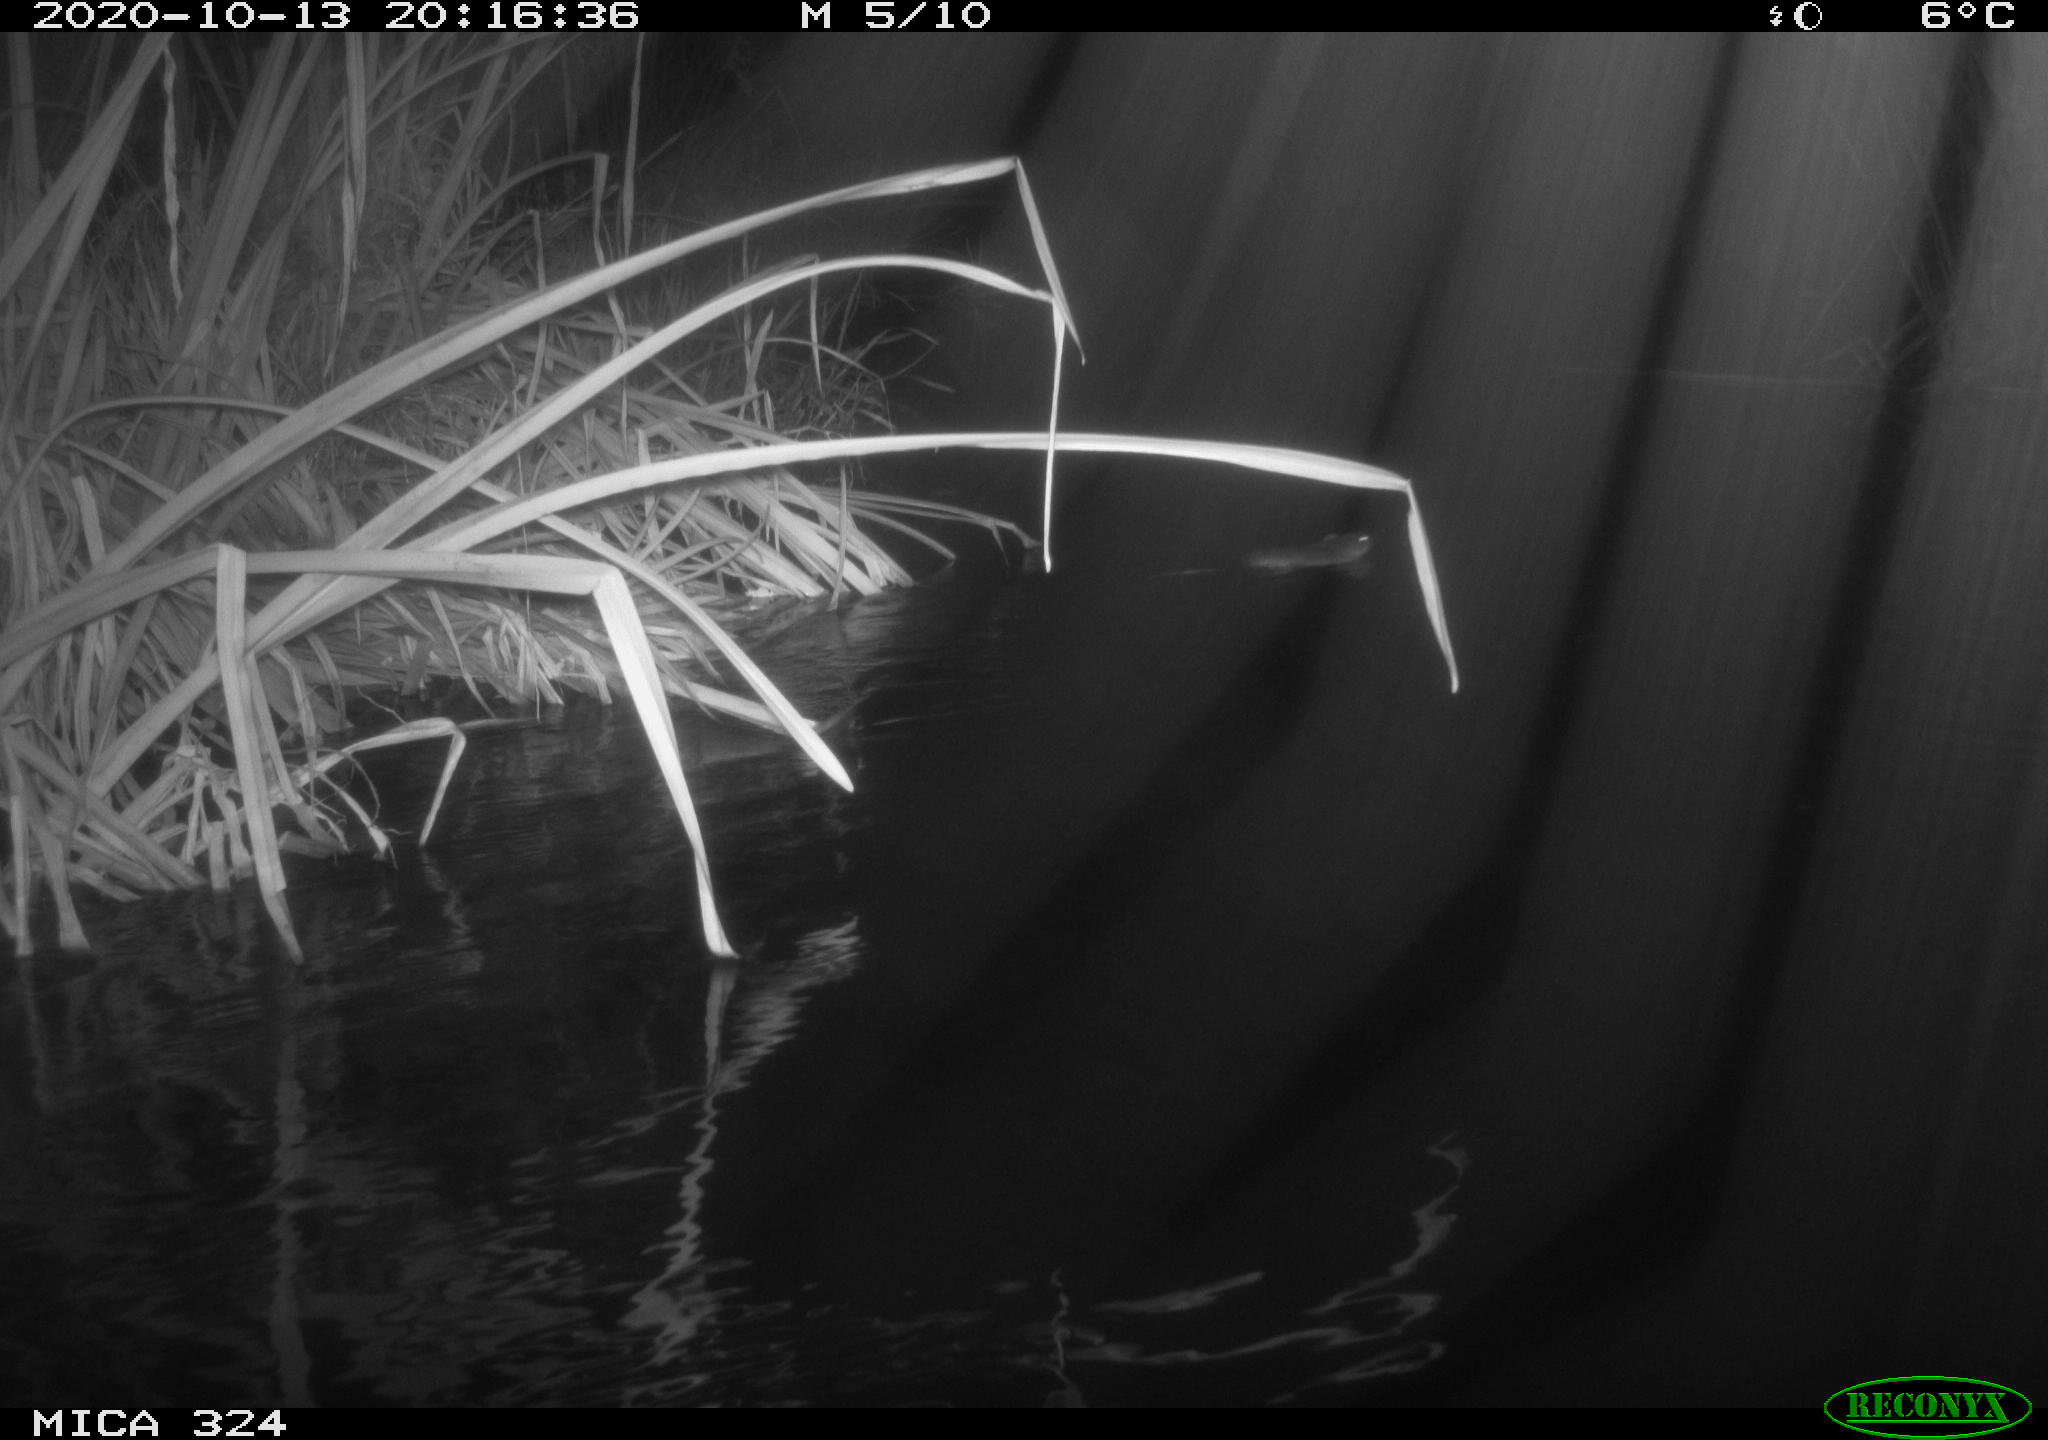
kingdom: Animalia
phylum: Chordata
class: Mammalia
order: Rodentia
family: Cricetidae
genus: Ondatra
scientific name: Ondatra zibethicus
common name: Muskrat
